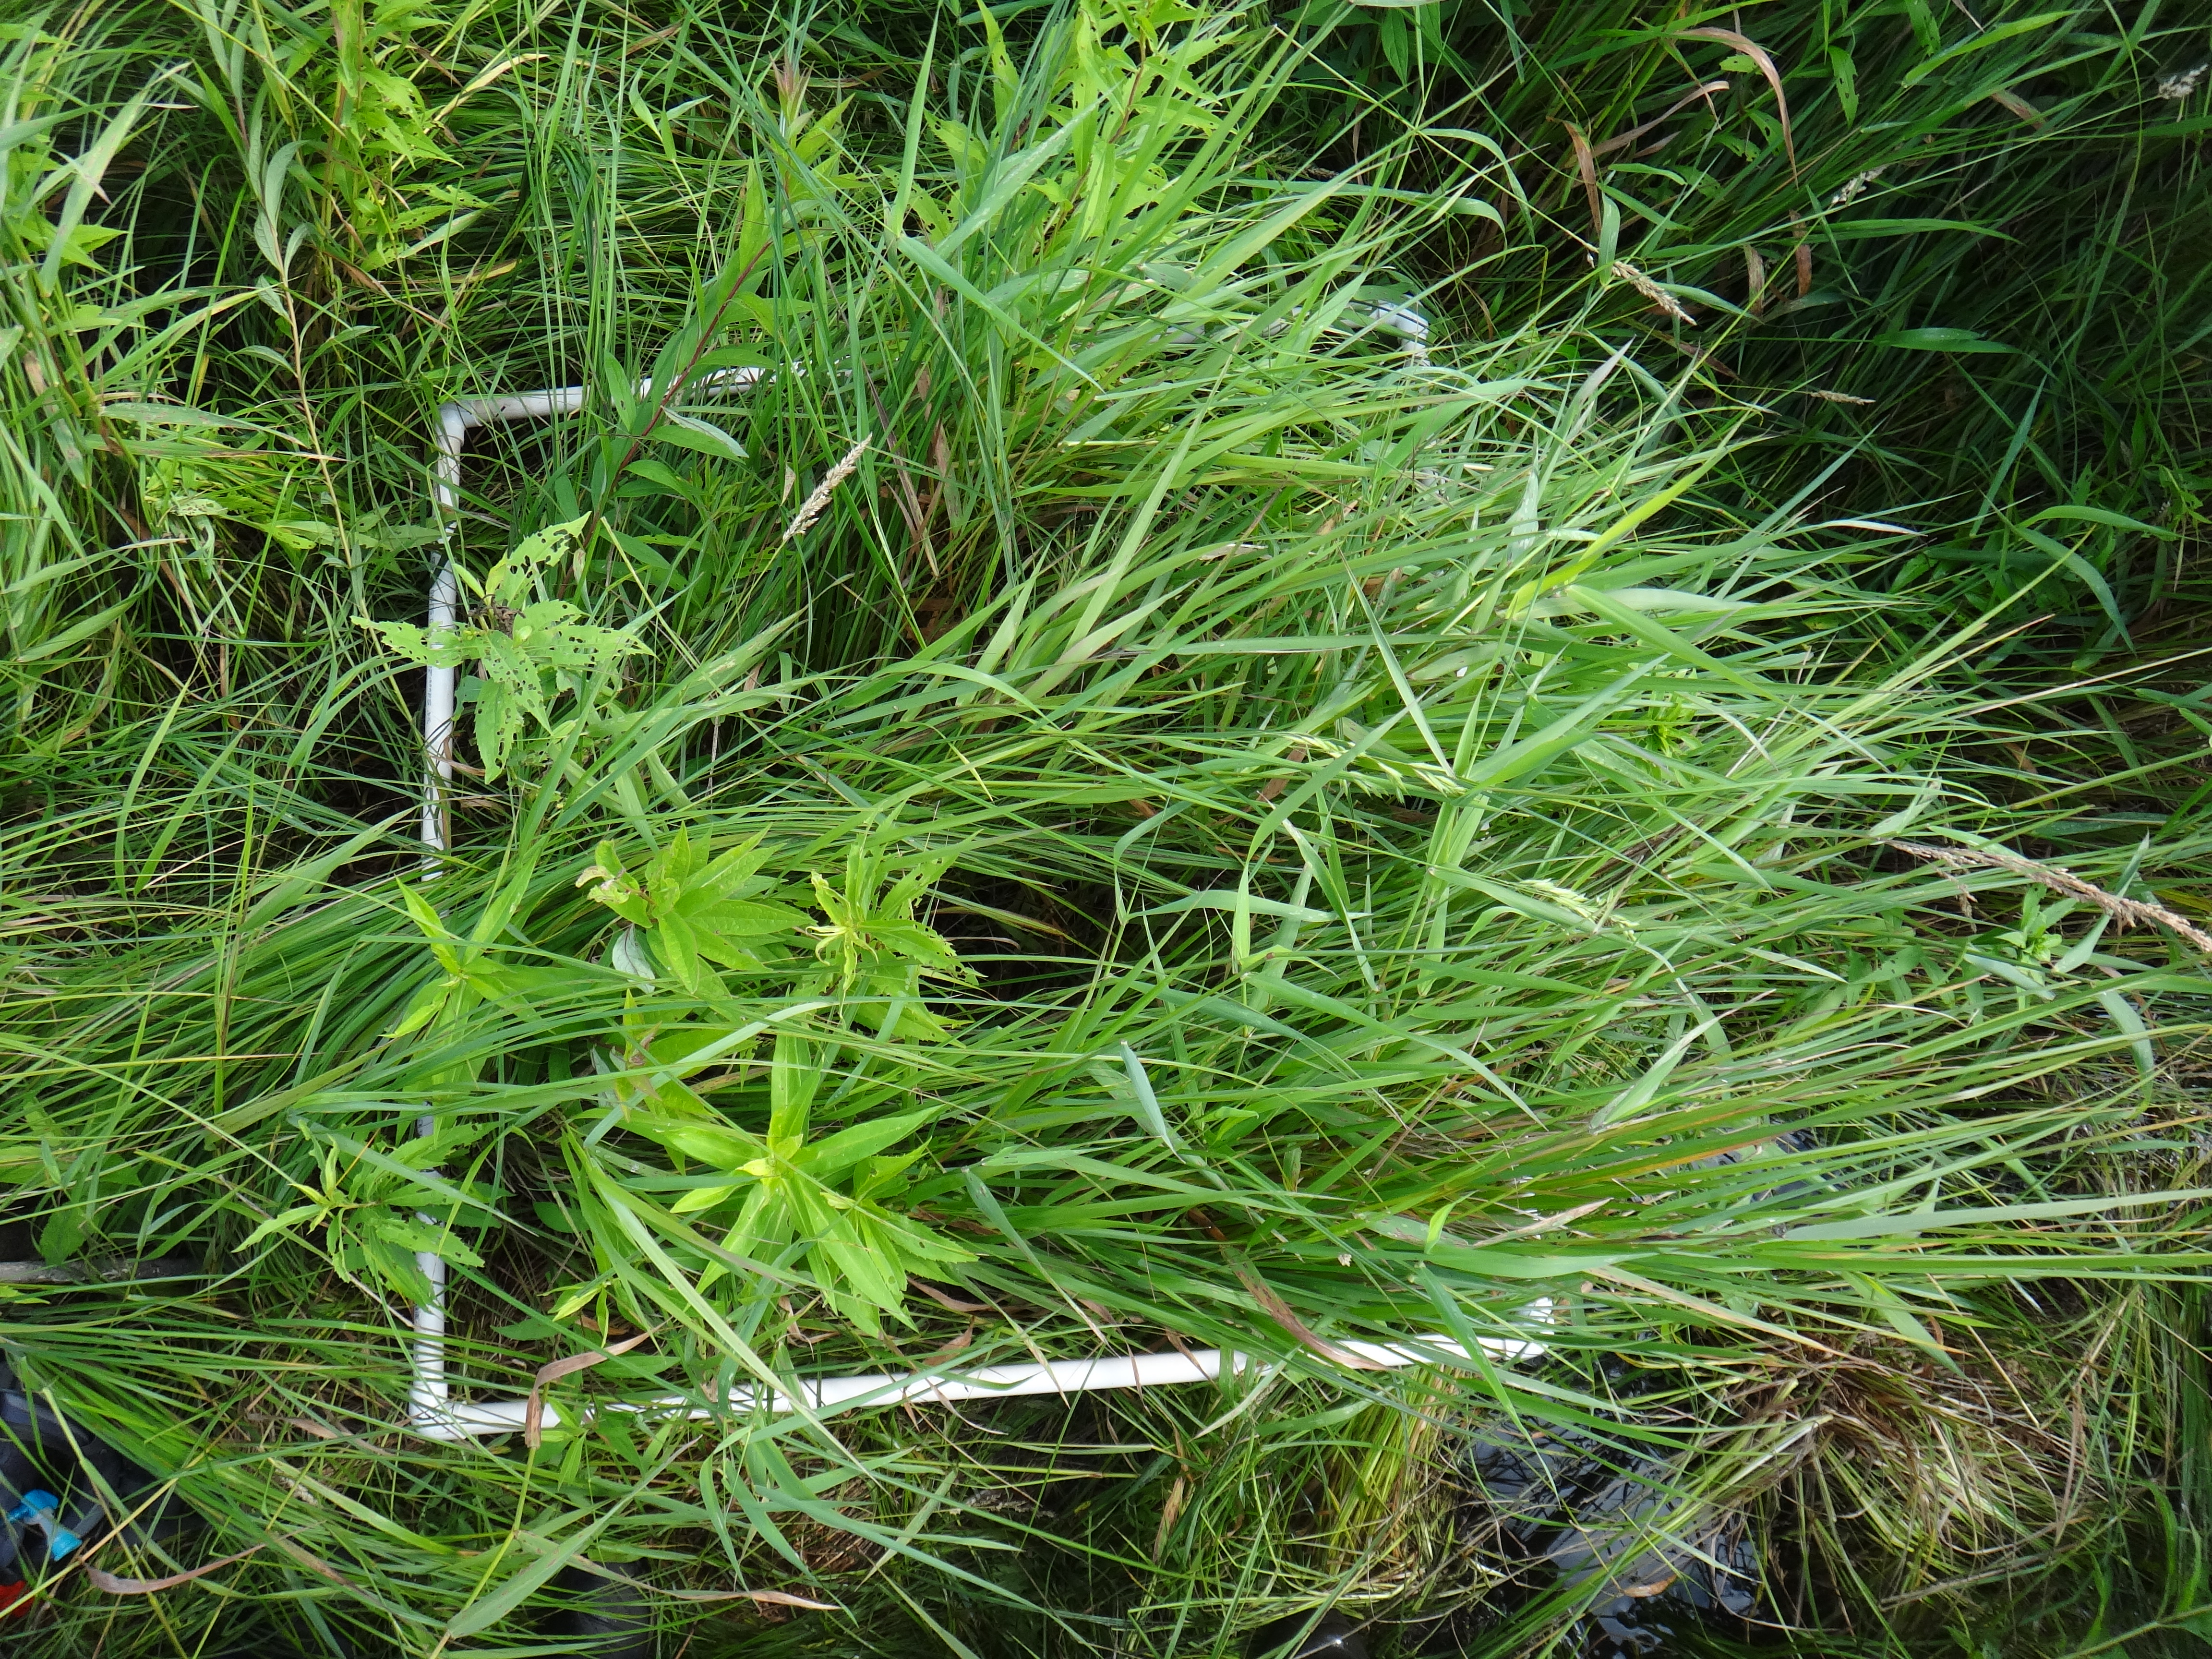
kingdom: Plantae
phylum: Tracheophyta
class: Magnoliopsida
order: Asterales
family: Asteraceae
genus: Doellingeria
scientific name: Doellingeria umbellata
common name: Flat-top white aster
